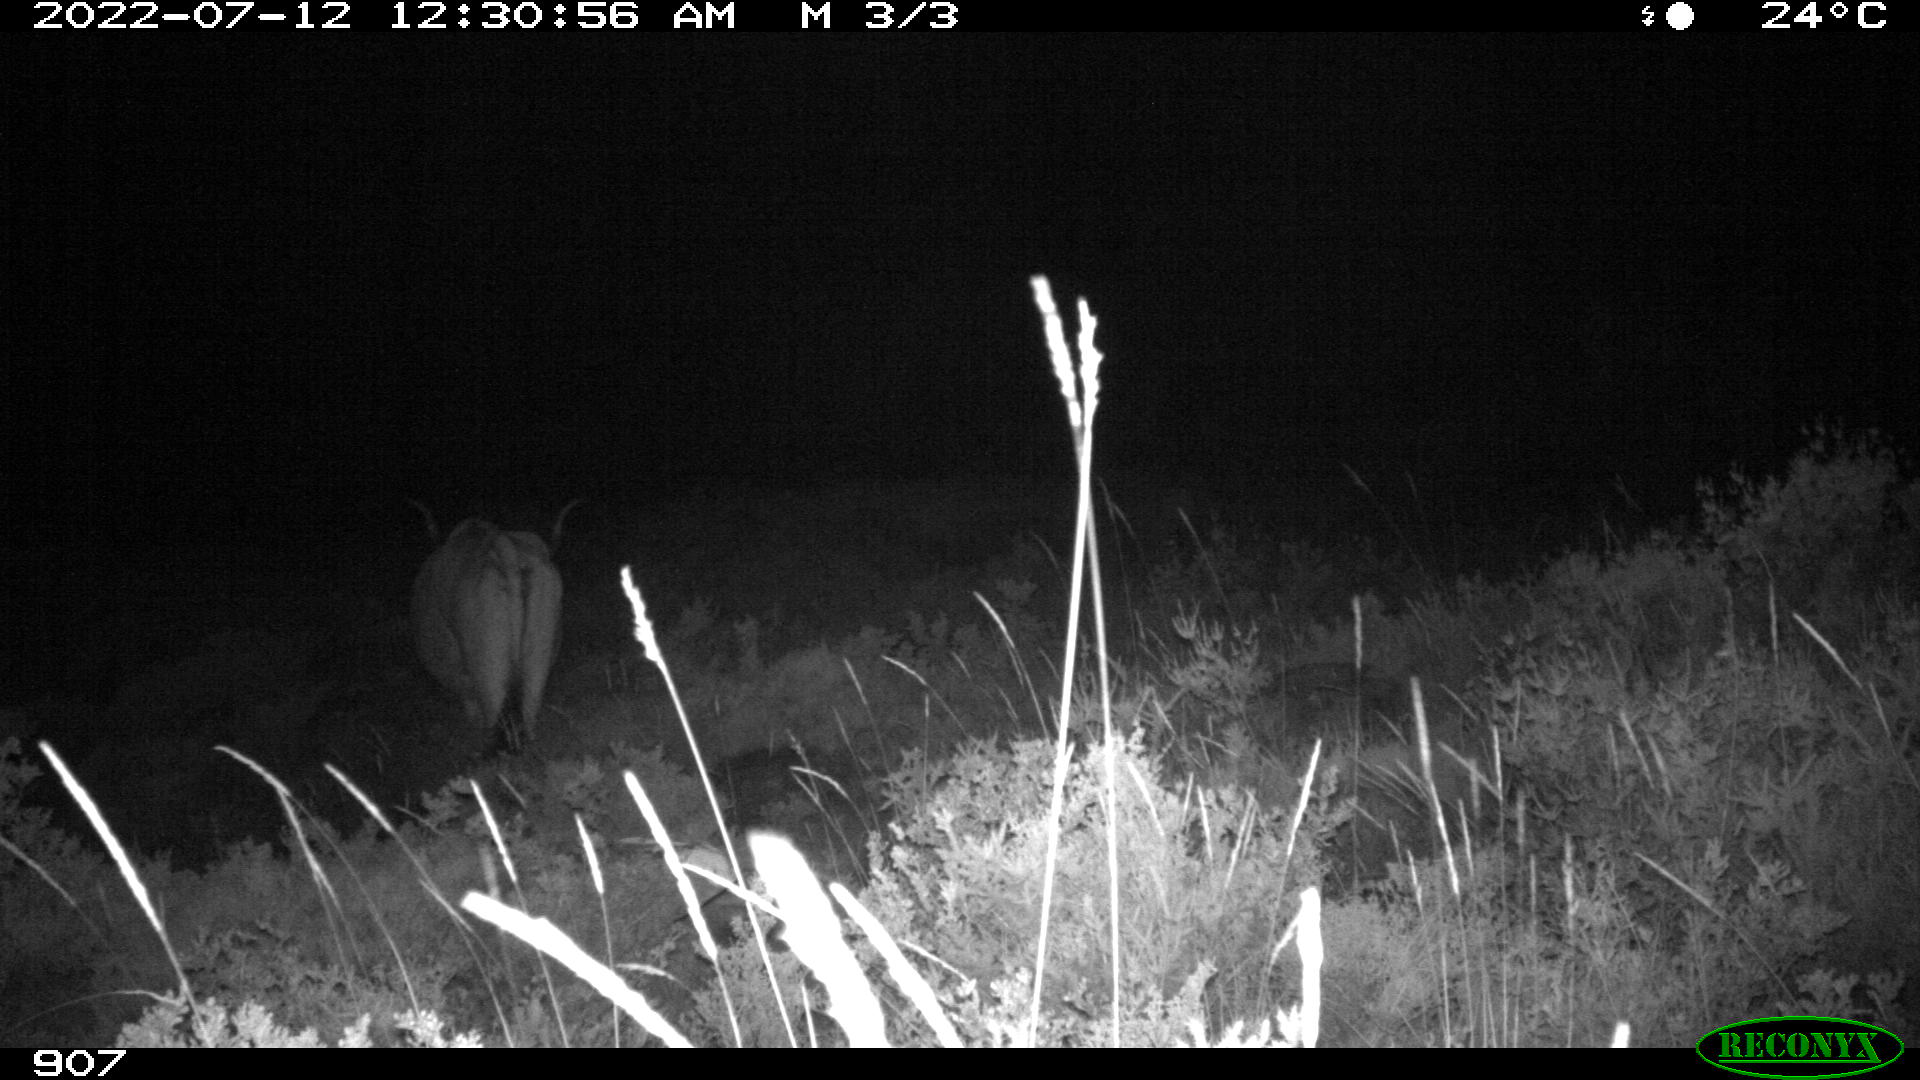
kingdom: Animalia
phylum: Chordata
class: Mammalia
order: Artiodactyla
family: Bovidae
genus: Bos
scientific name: Bos taurus
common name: Domesticated cattle
